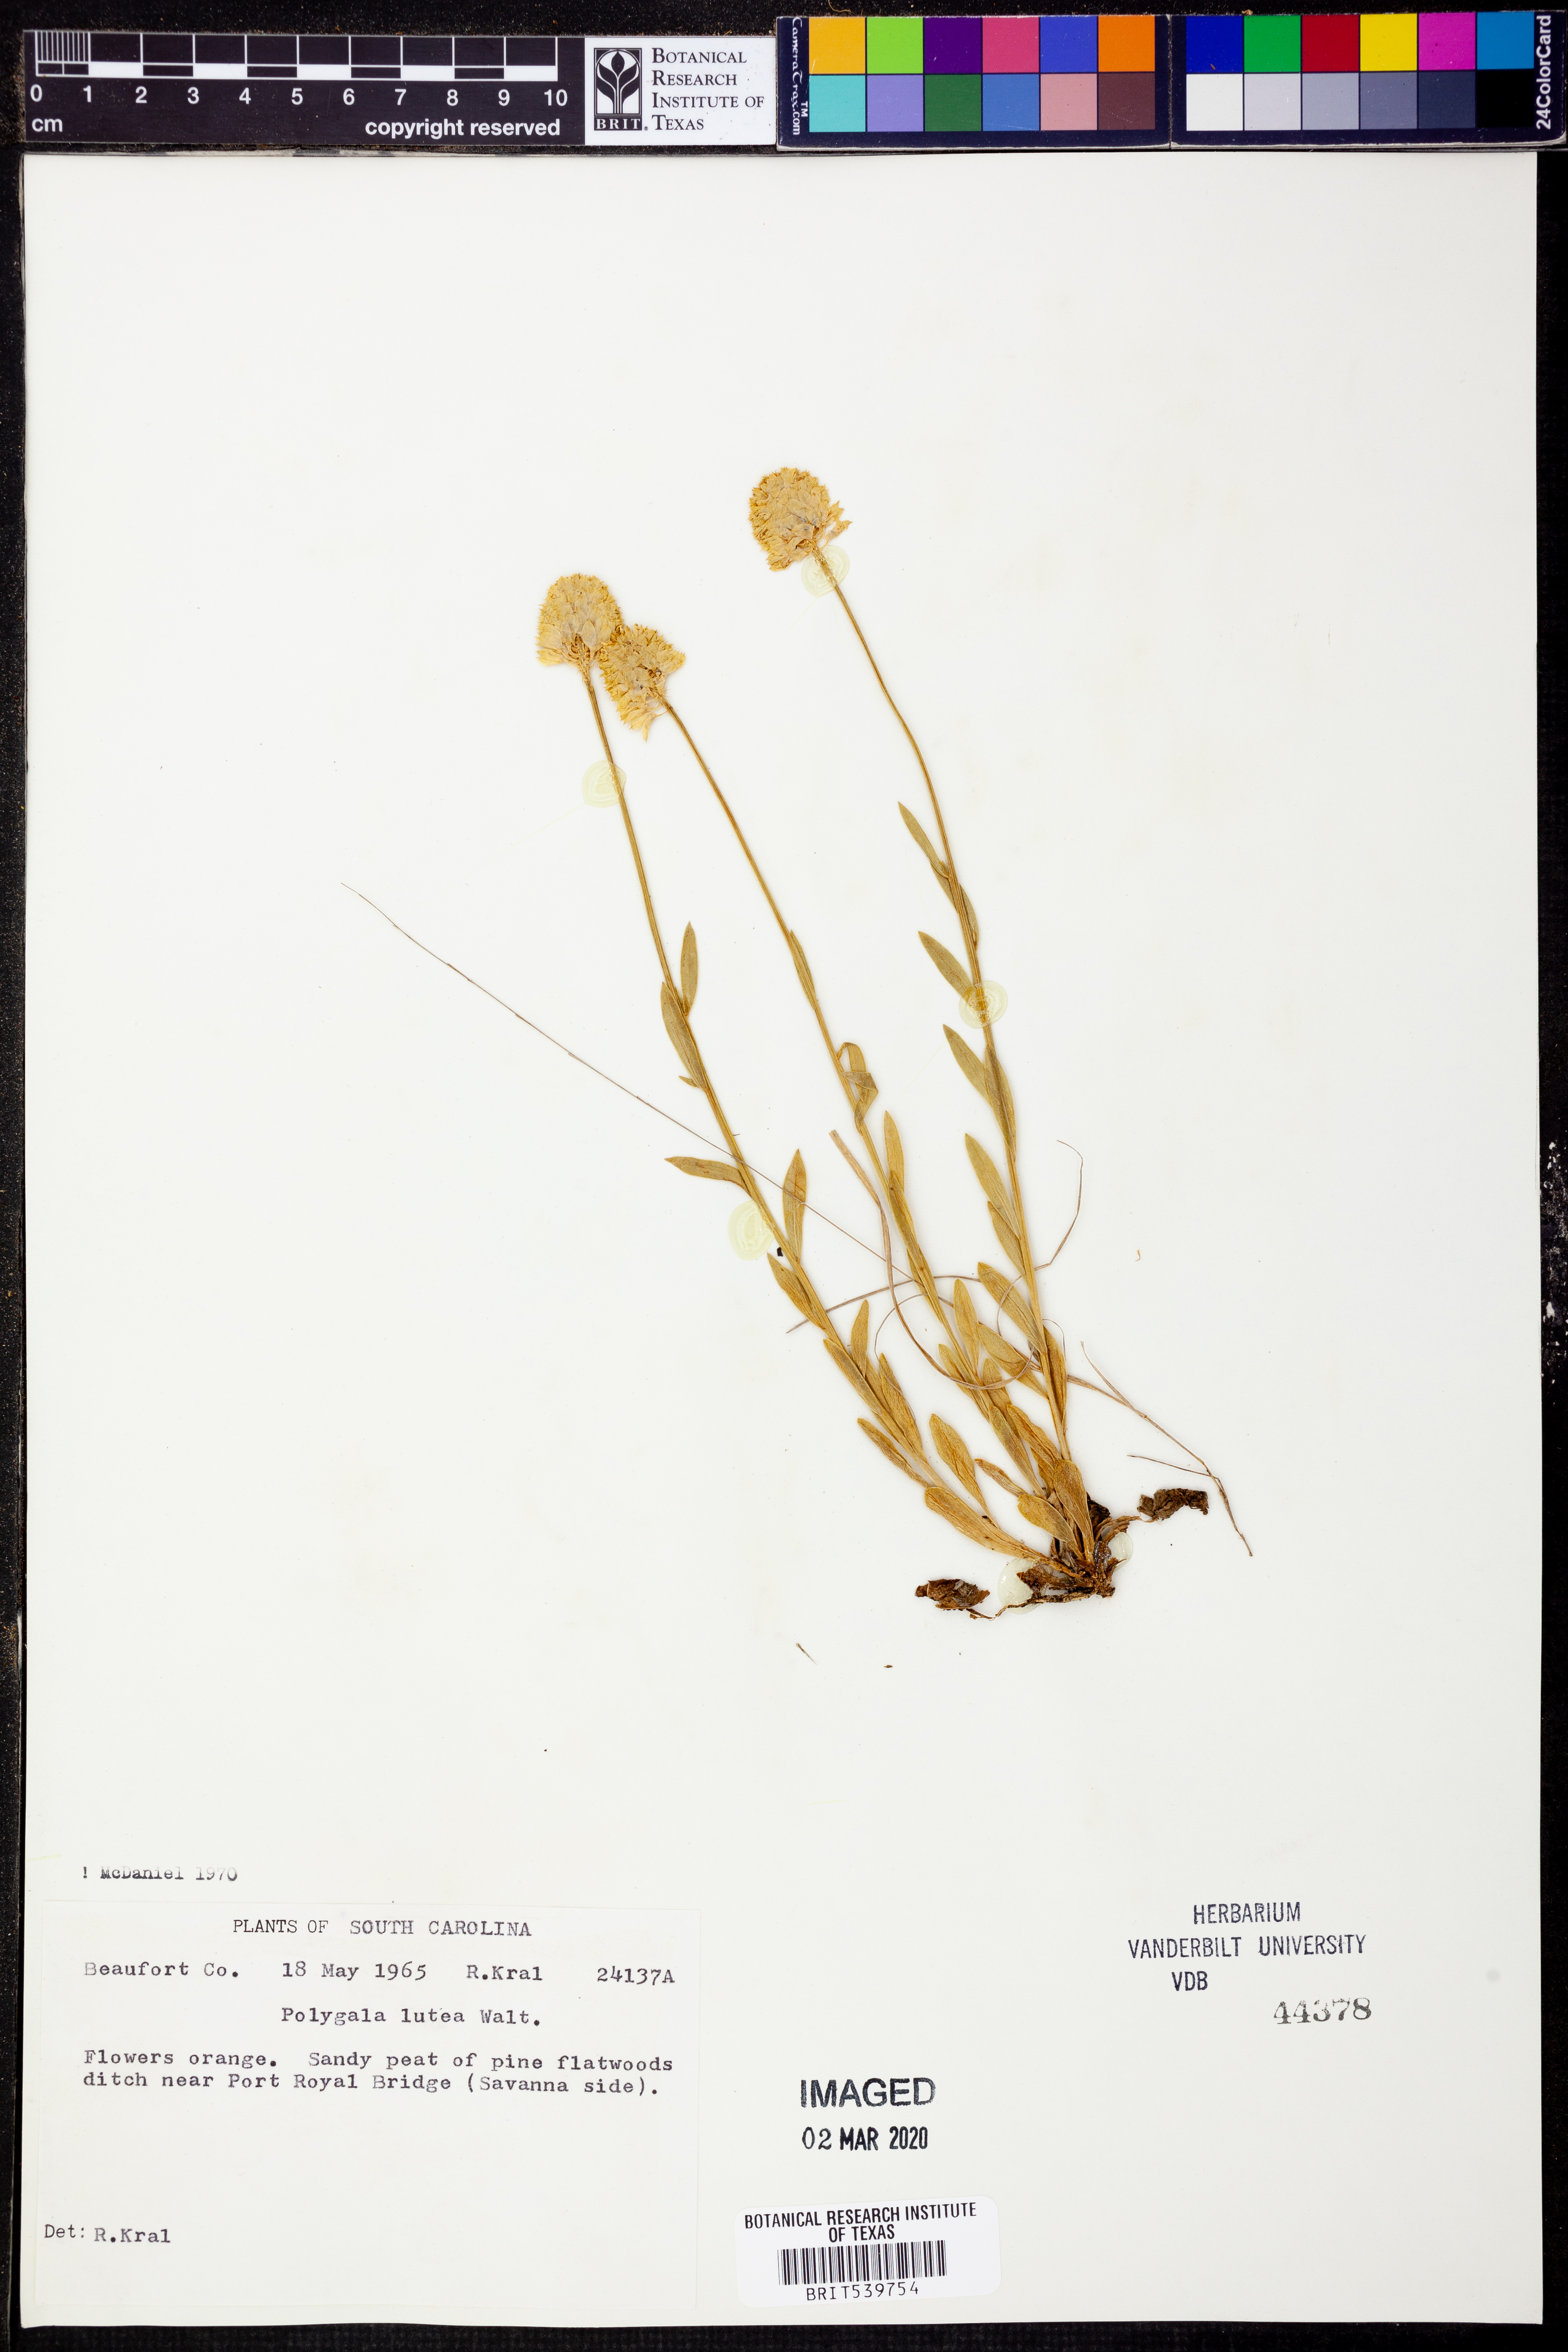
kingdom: Plantae
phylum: Tracheophyta
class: Magnoliopsida
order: Fabales
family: Polygalaceae
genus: Polygala
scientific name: Polygala lutea
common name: Orange milkwort
